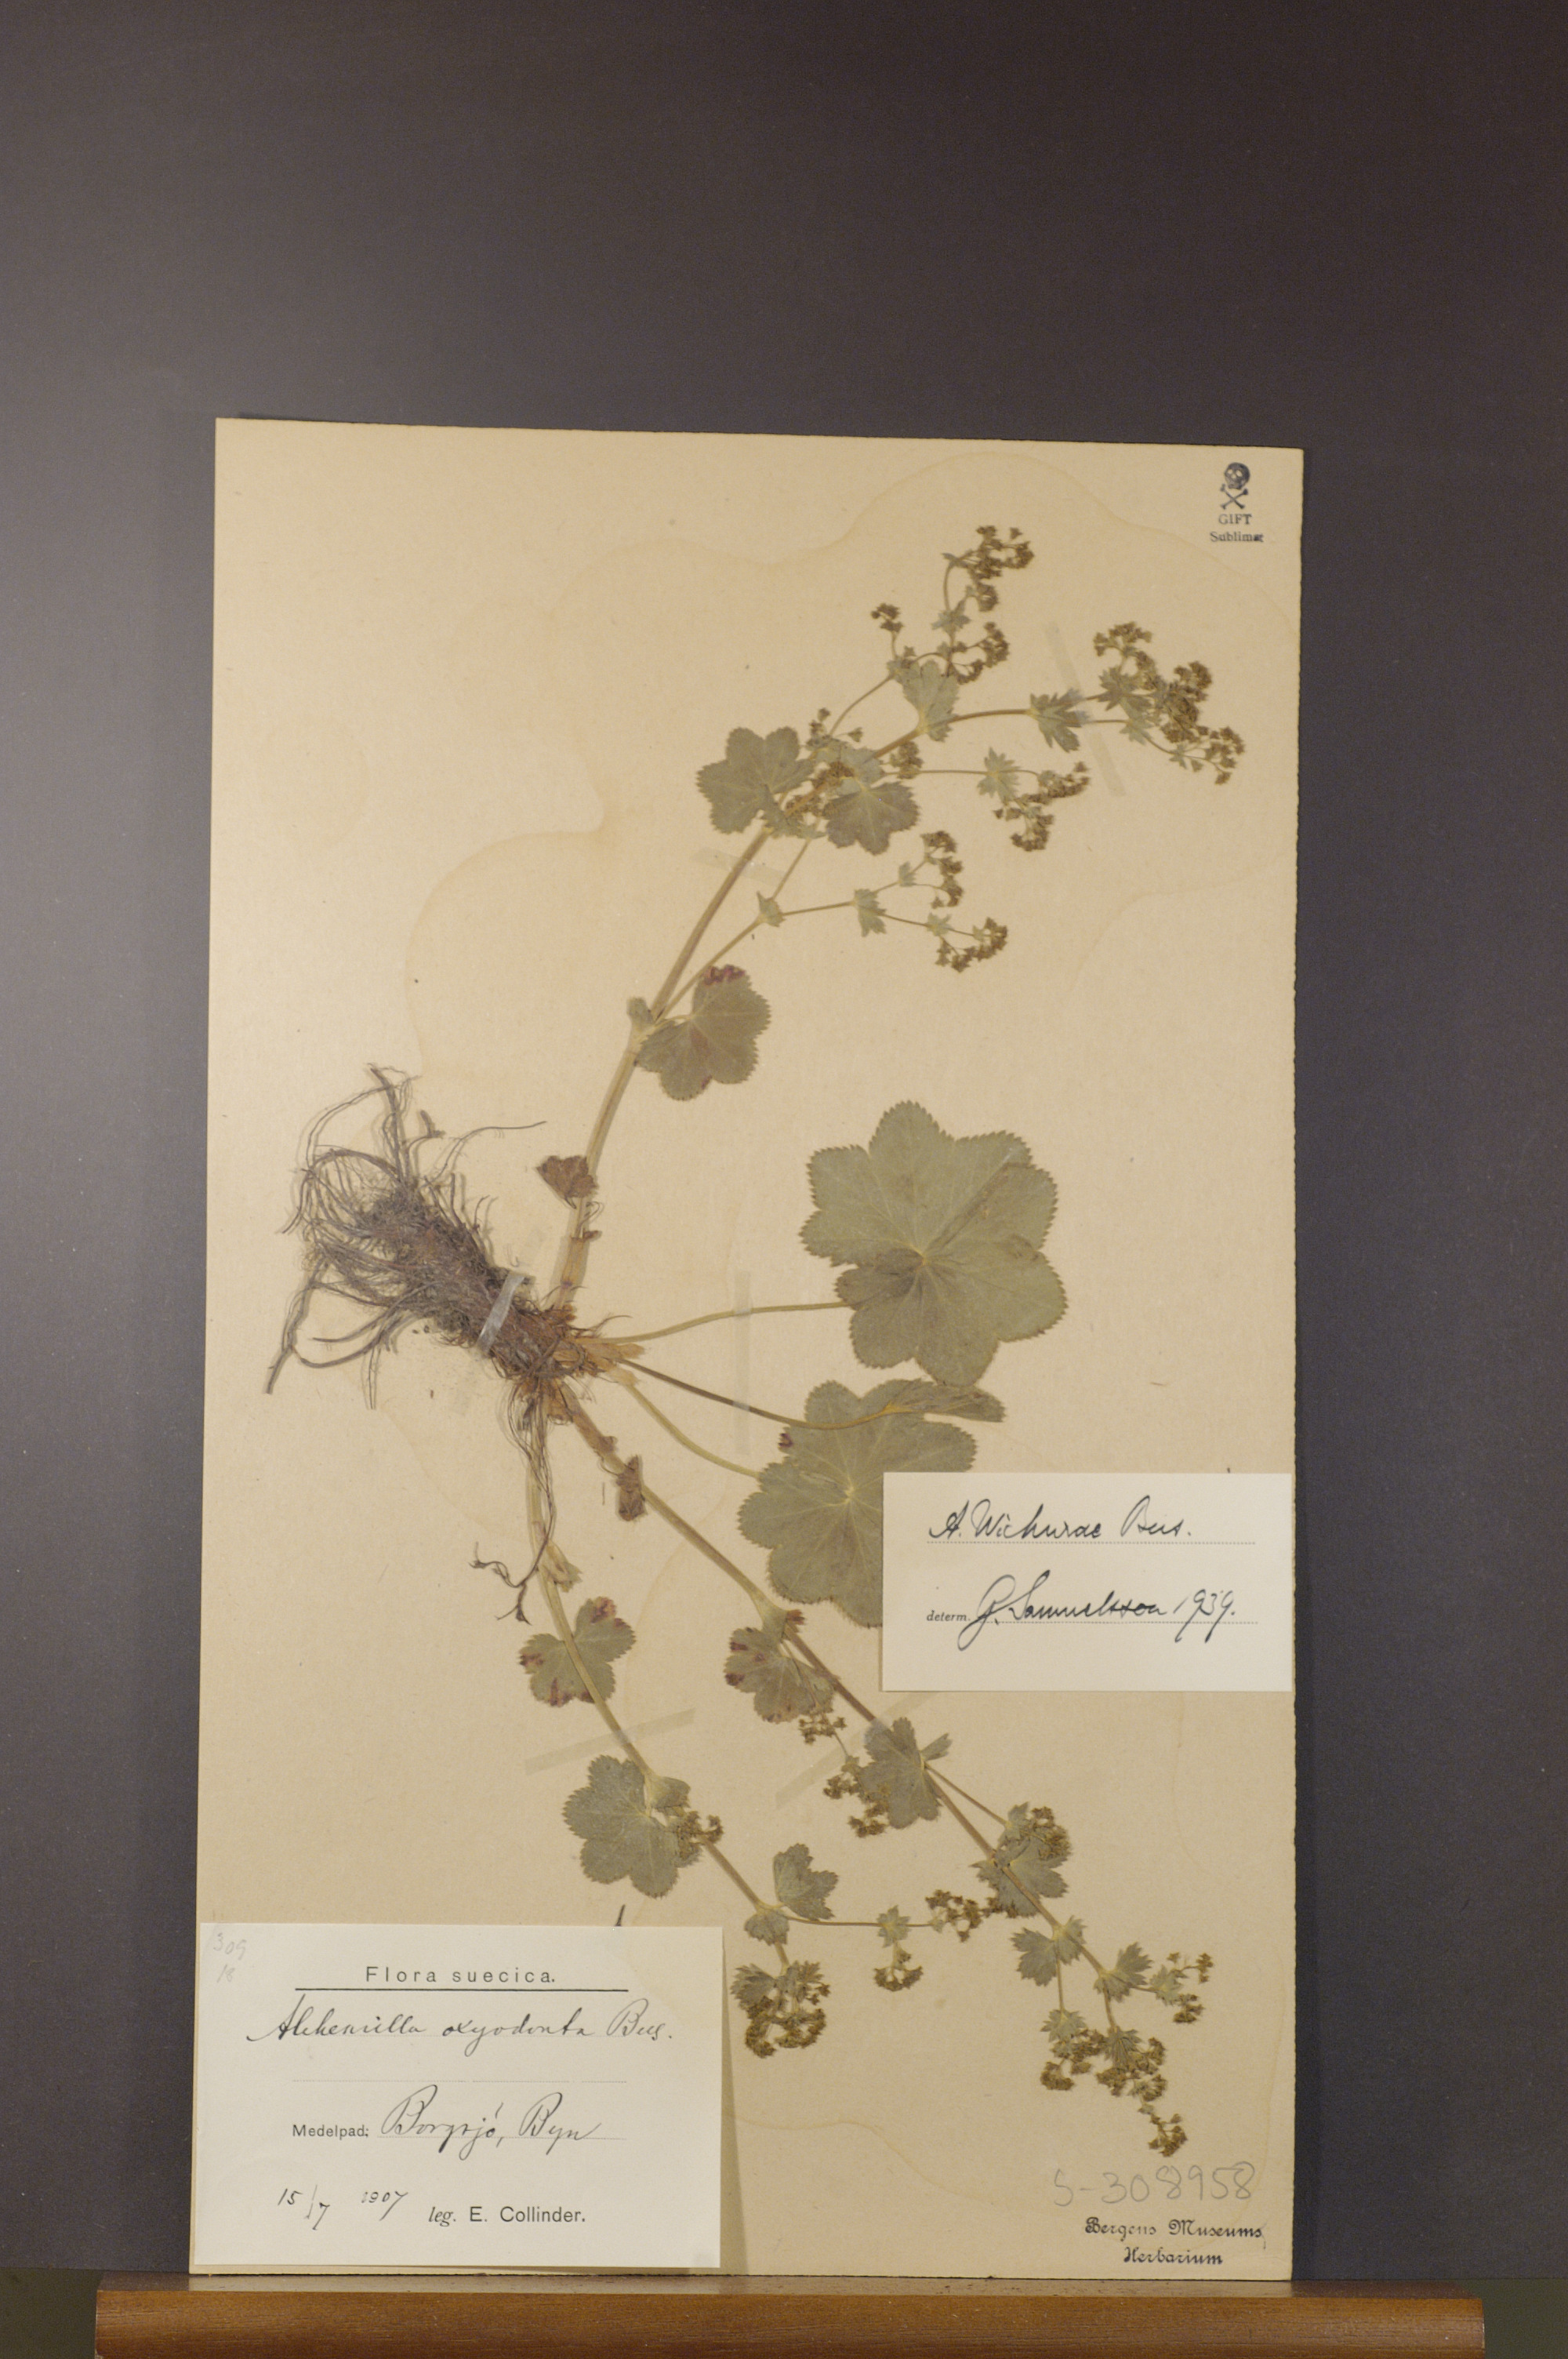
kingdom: Plantae
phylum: Tracheophyta
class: Magnoliopsida
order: Rosales
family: Rosaceae
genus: Alchemilla
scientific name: Alchemilla wichurae
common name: Rock lady's mantle
